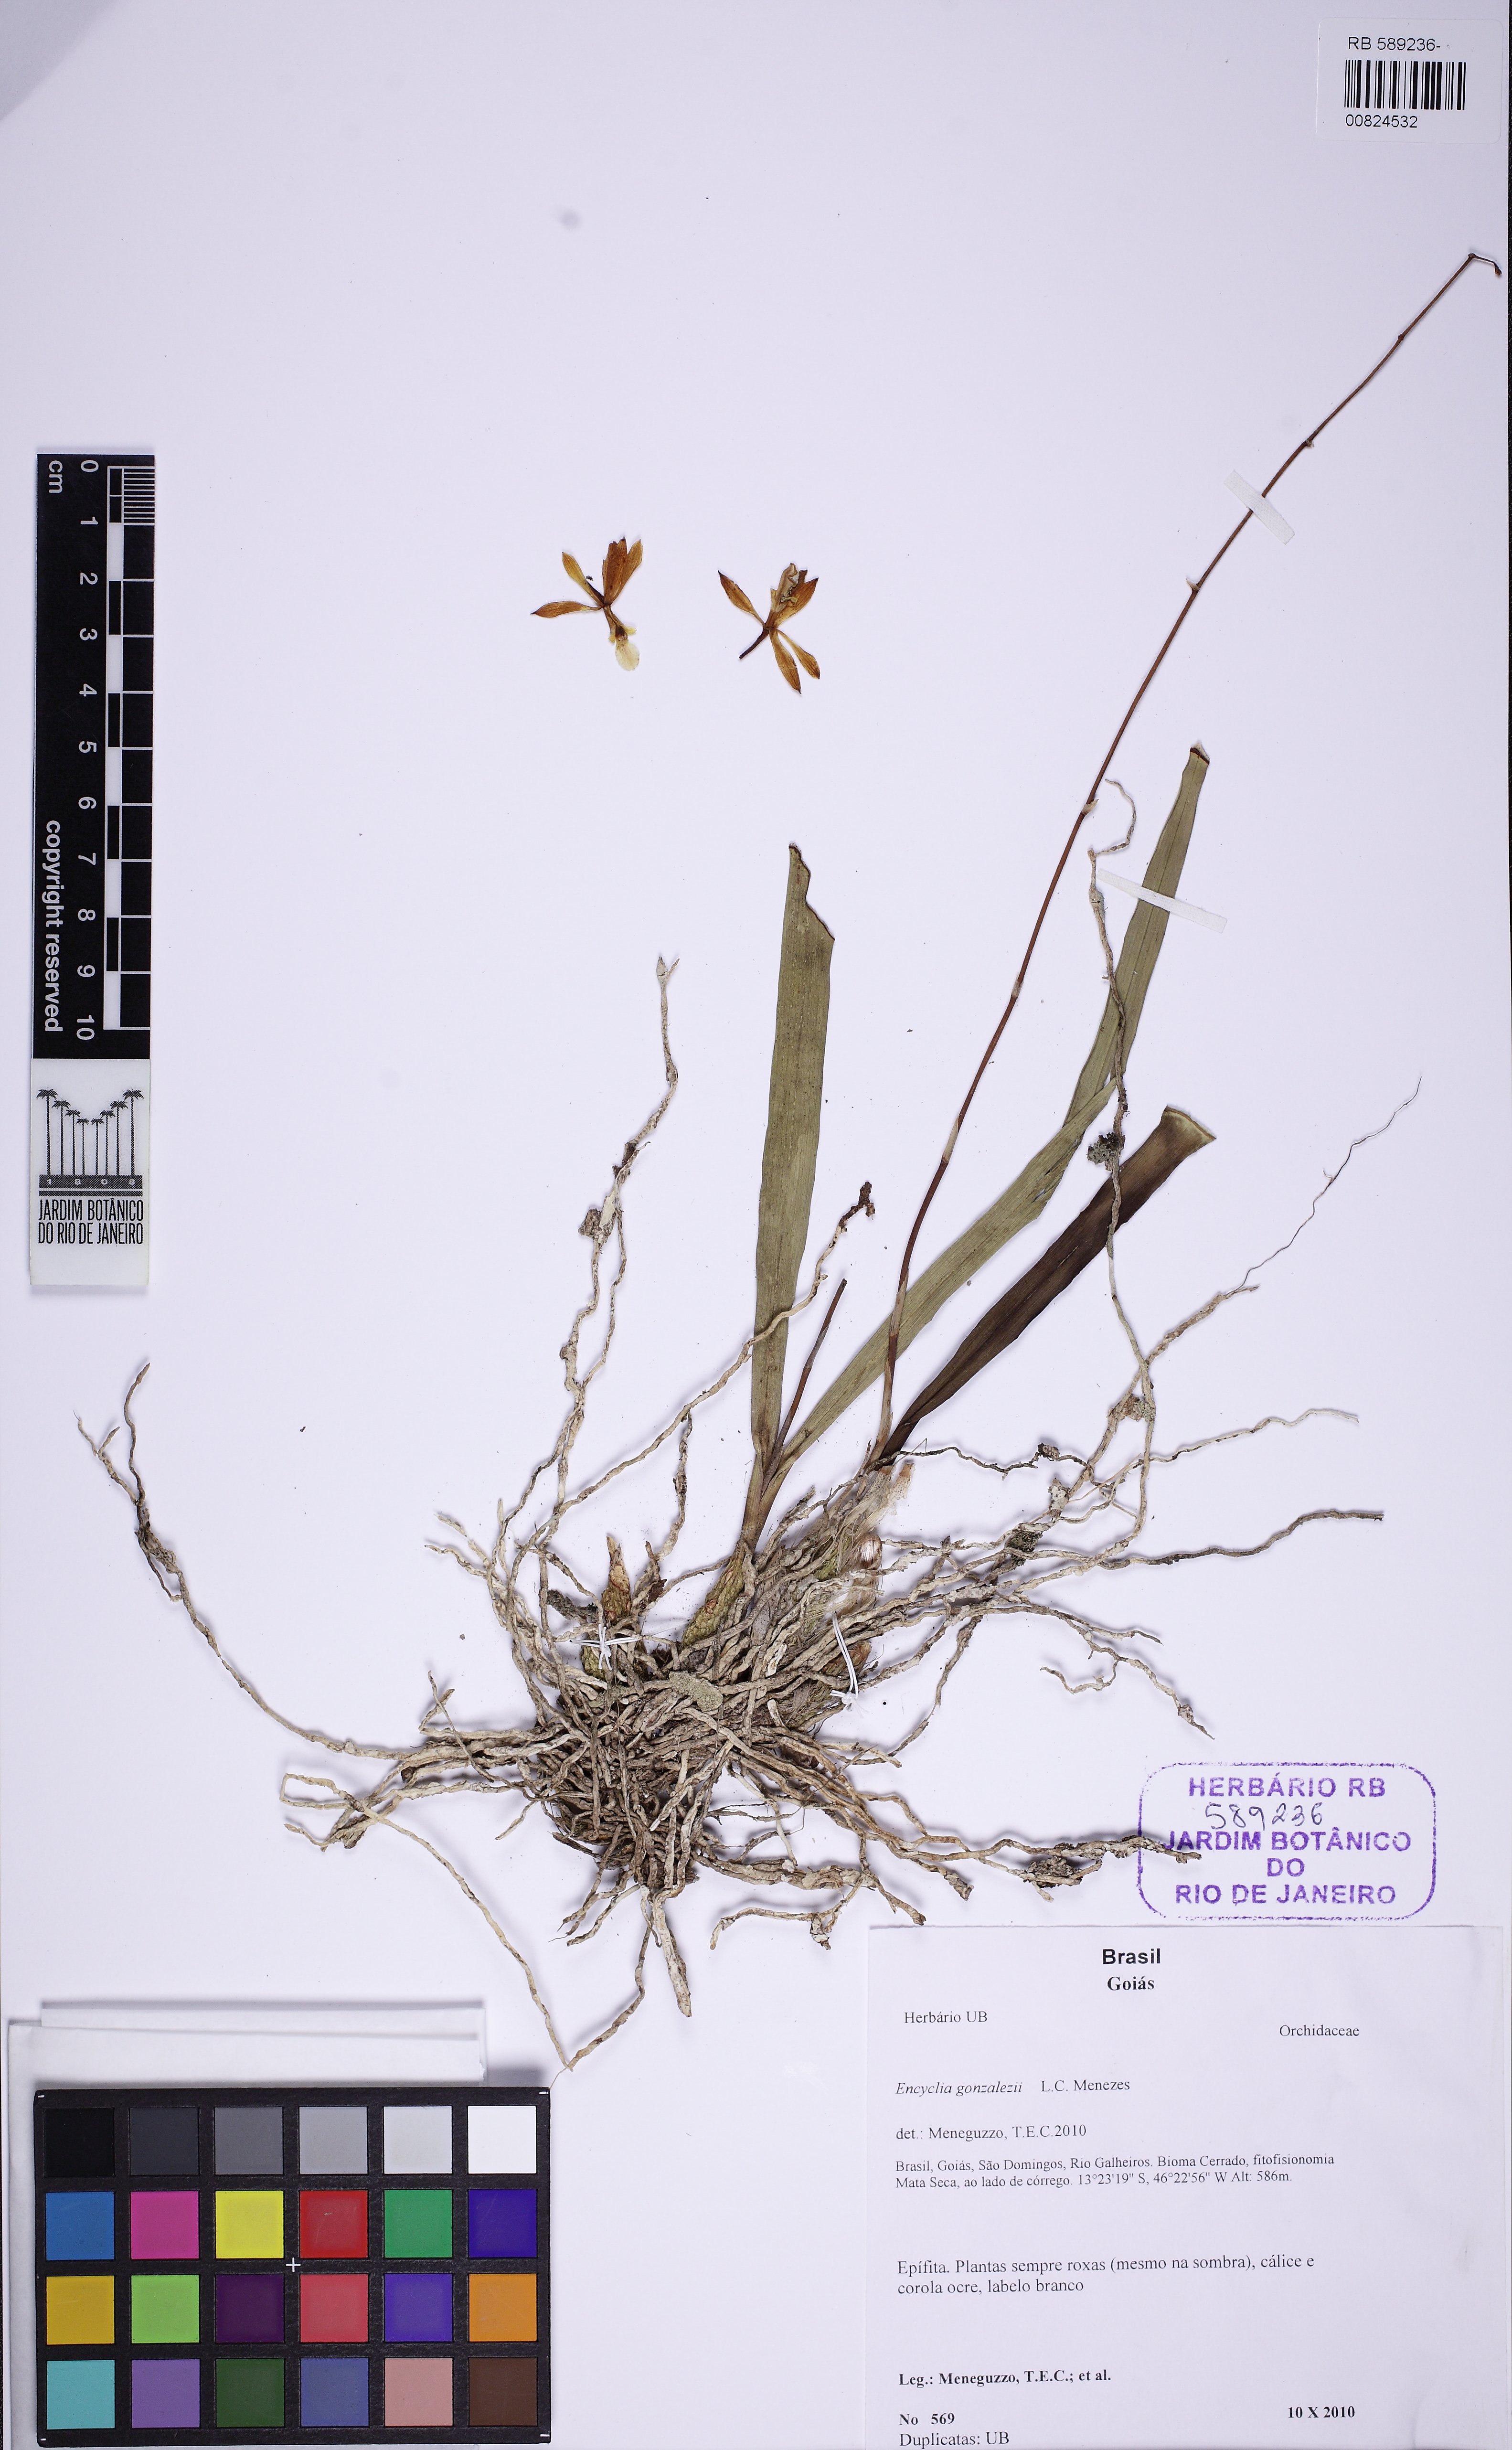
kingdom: Plantae
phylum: Tracheophyta
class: Liliopsida
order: Asparagales
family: Orchidaceae
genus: Encyclia
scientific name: Encyclia gonzalezii
